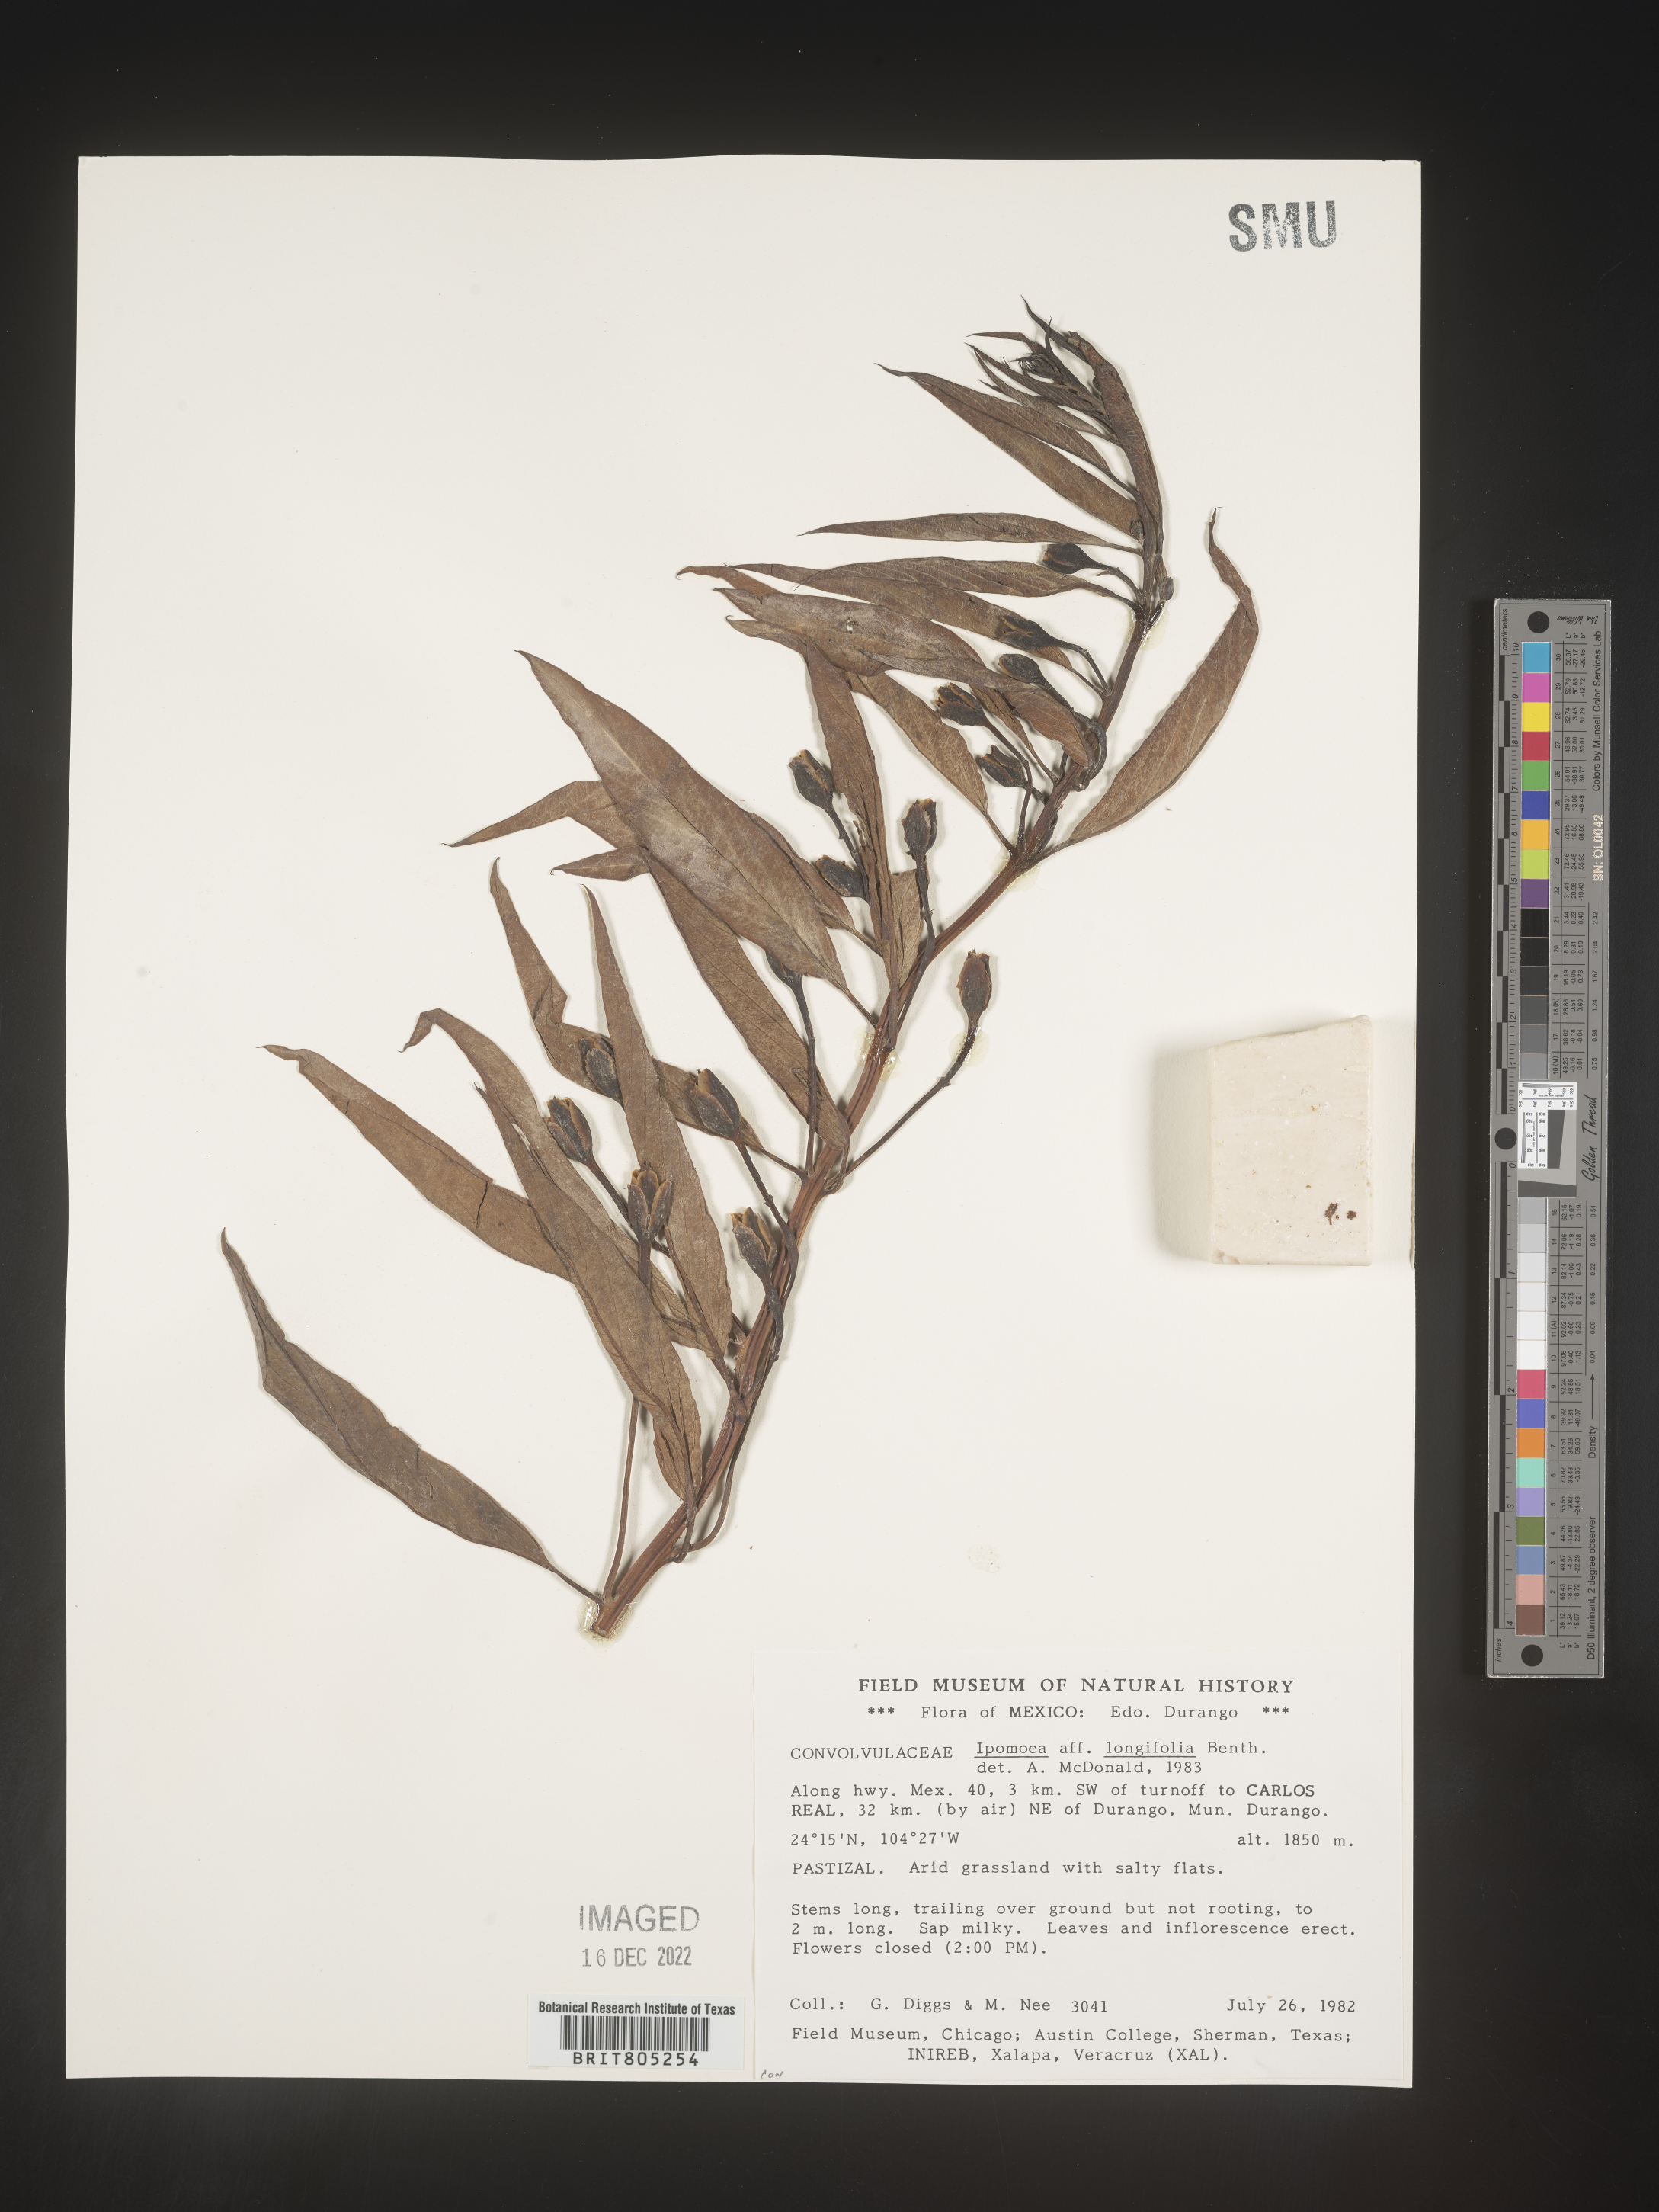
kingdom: Plantae
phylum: Tracheophyta
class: Magnoliopsida
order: Solanales
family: Convolvulaceae
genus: Ipomoea
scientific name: Ipomoea
